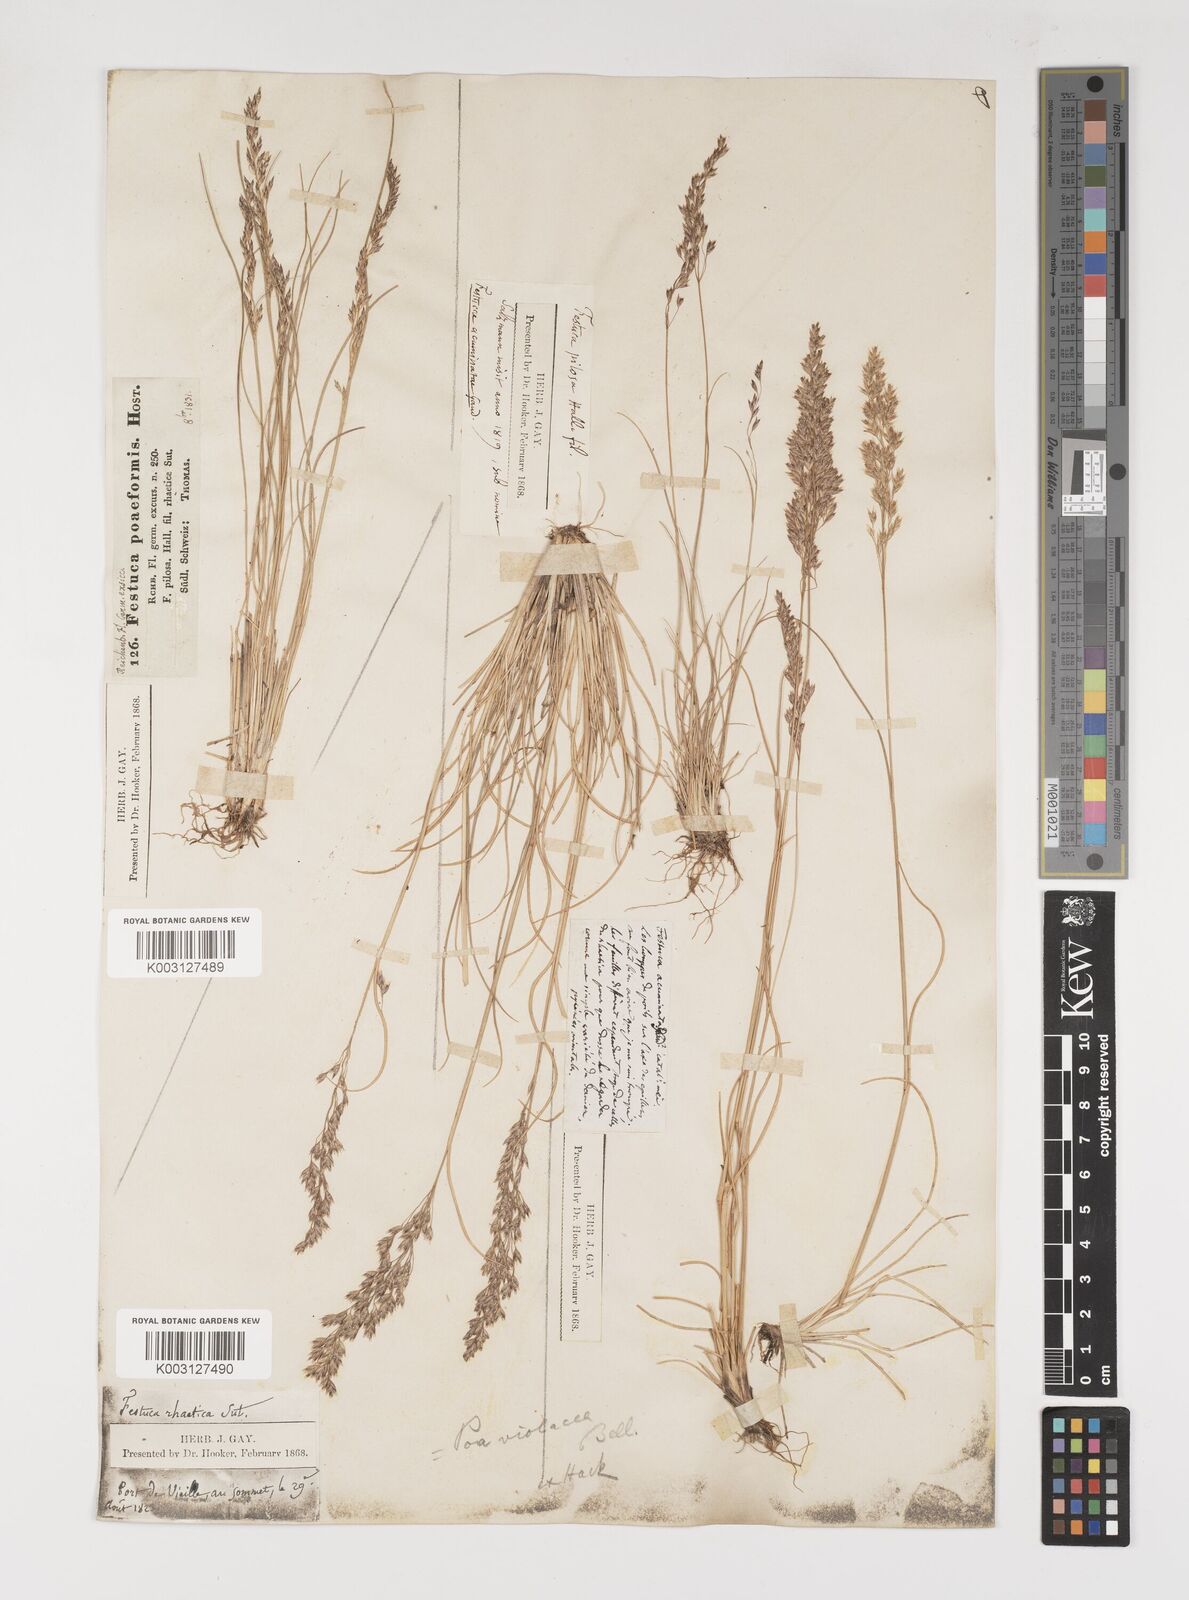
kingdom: Plantae
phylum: Tracheophyta
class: Liliopsida
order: Poales
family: Poaceae
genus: Bellardiochloa
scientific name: Bellardiochloa variegata
